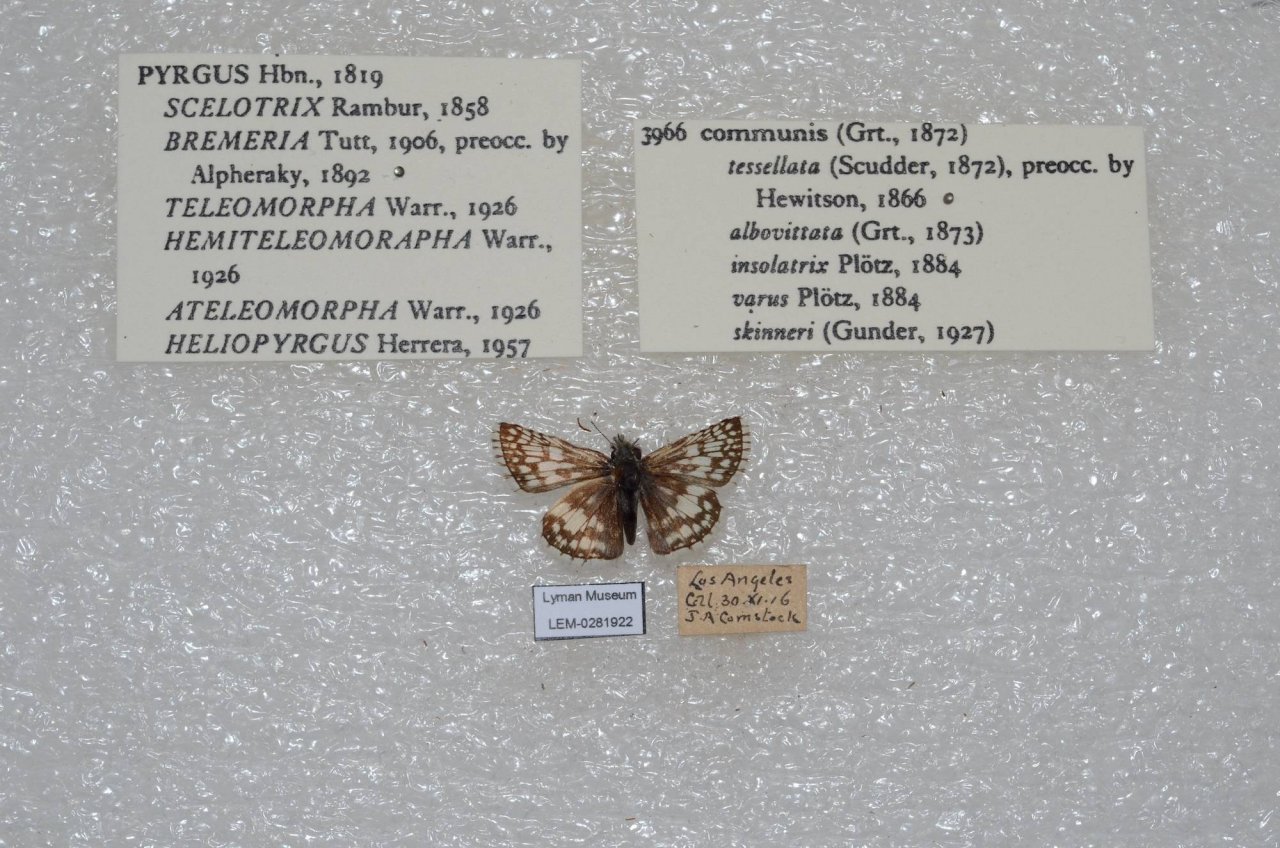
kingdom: Animalia
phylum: Arthropoda
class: Insecta
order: Lepidoptera
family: Hesperiidae
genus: Pyrgus
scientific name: Pyrgus communis
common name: Common Checkered-Skipper
